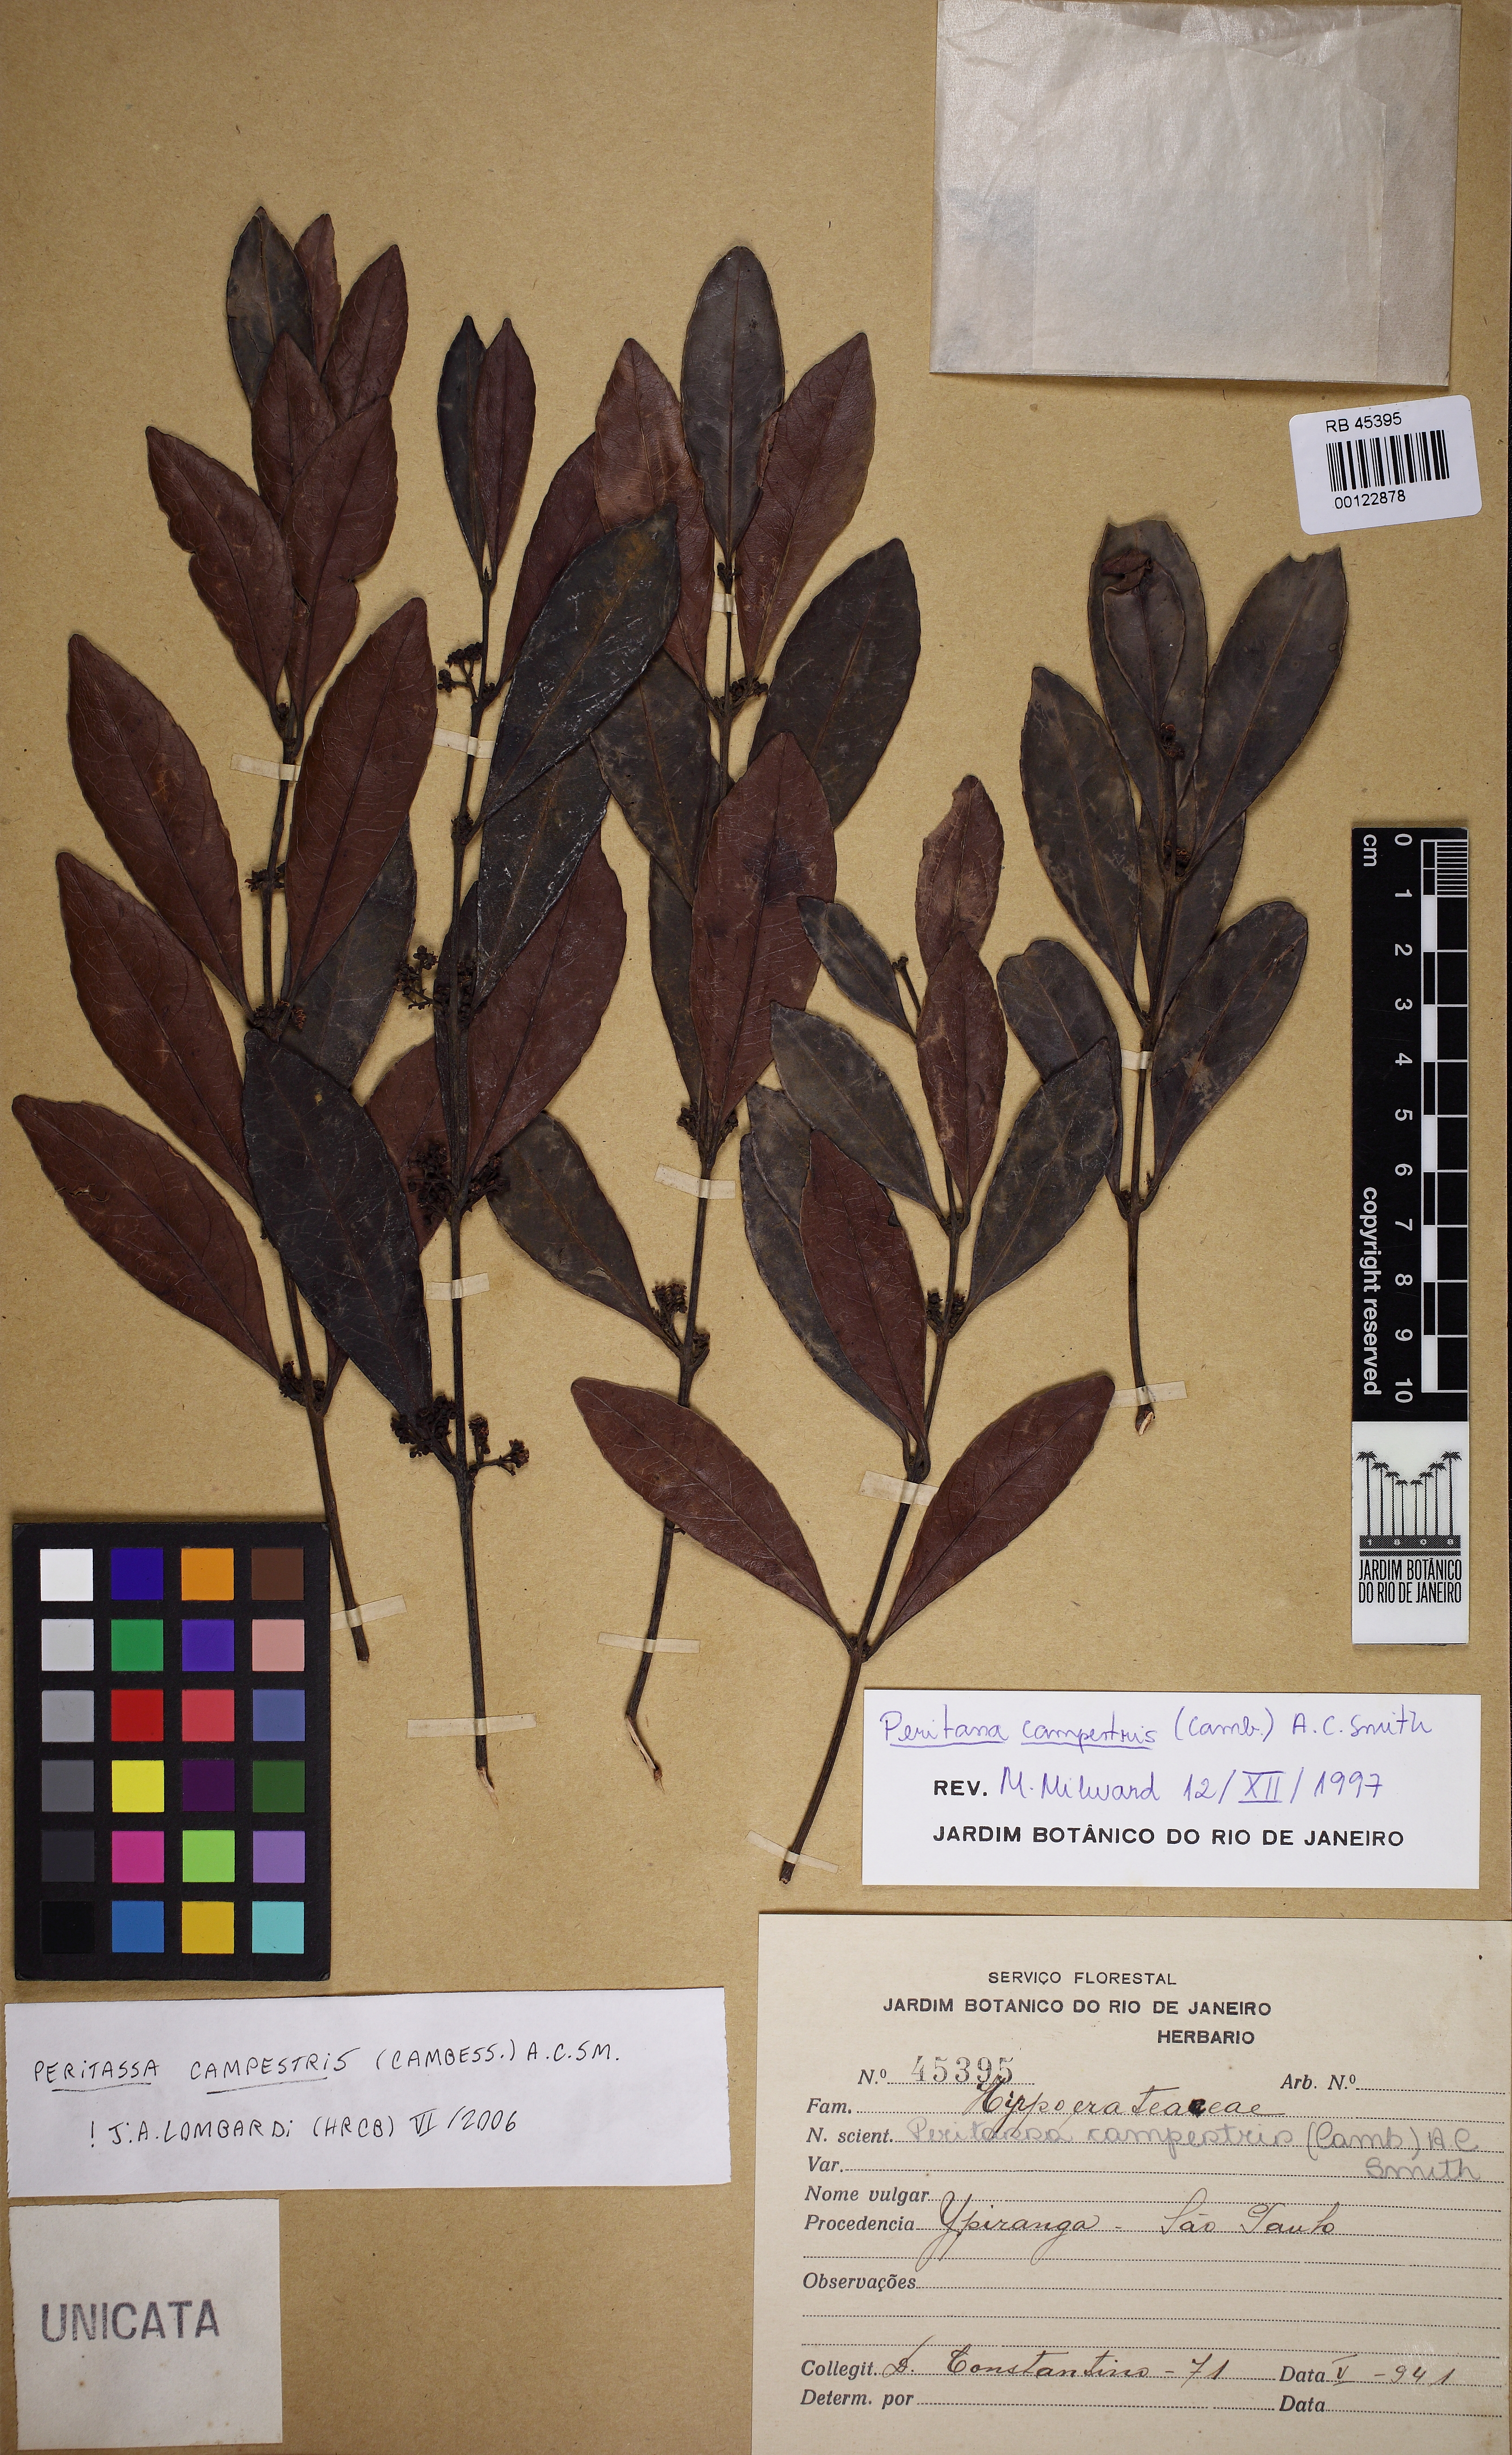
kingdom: Plantae
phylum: Tracheophyta
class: Magnoliopsida
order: Celastrales
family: Celastraceae
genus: Peritassa
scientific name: Peritassa campestris
